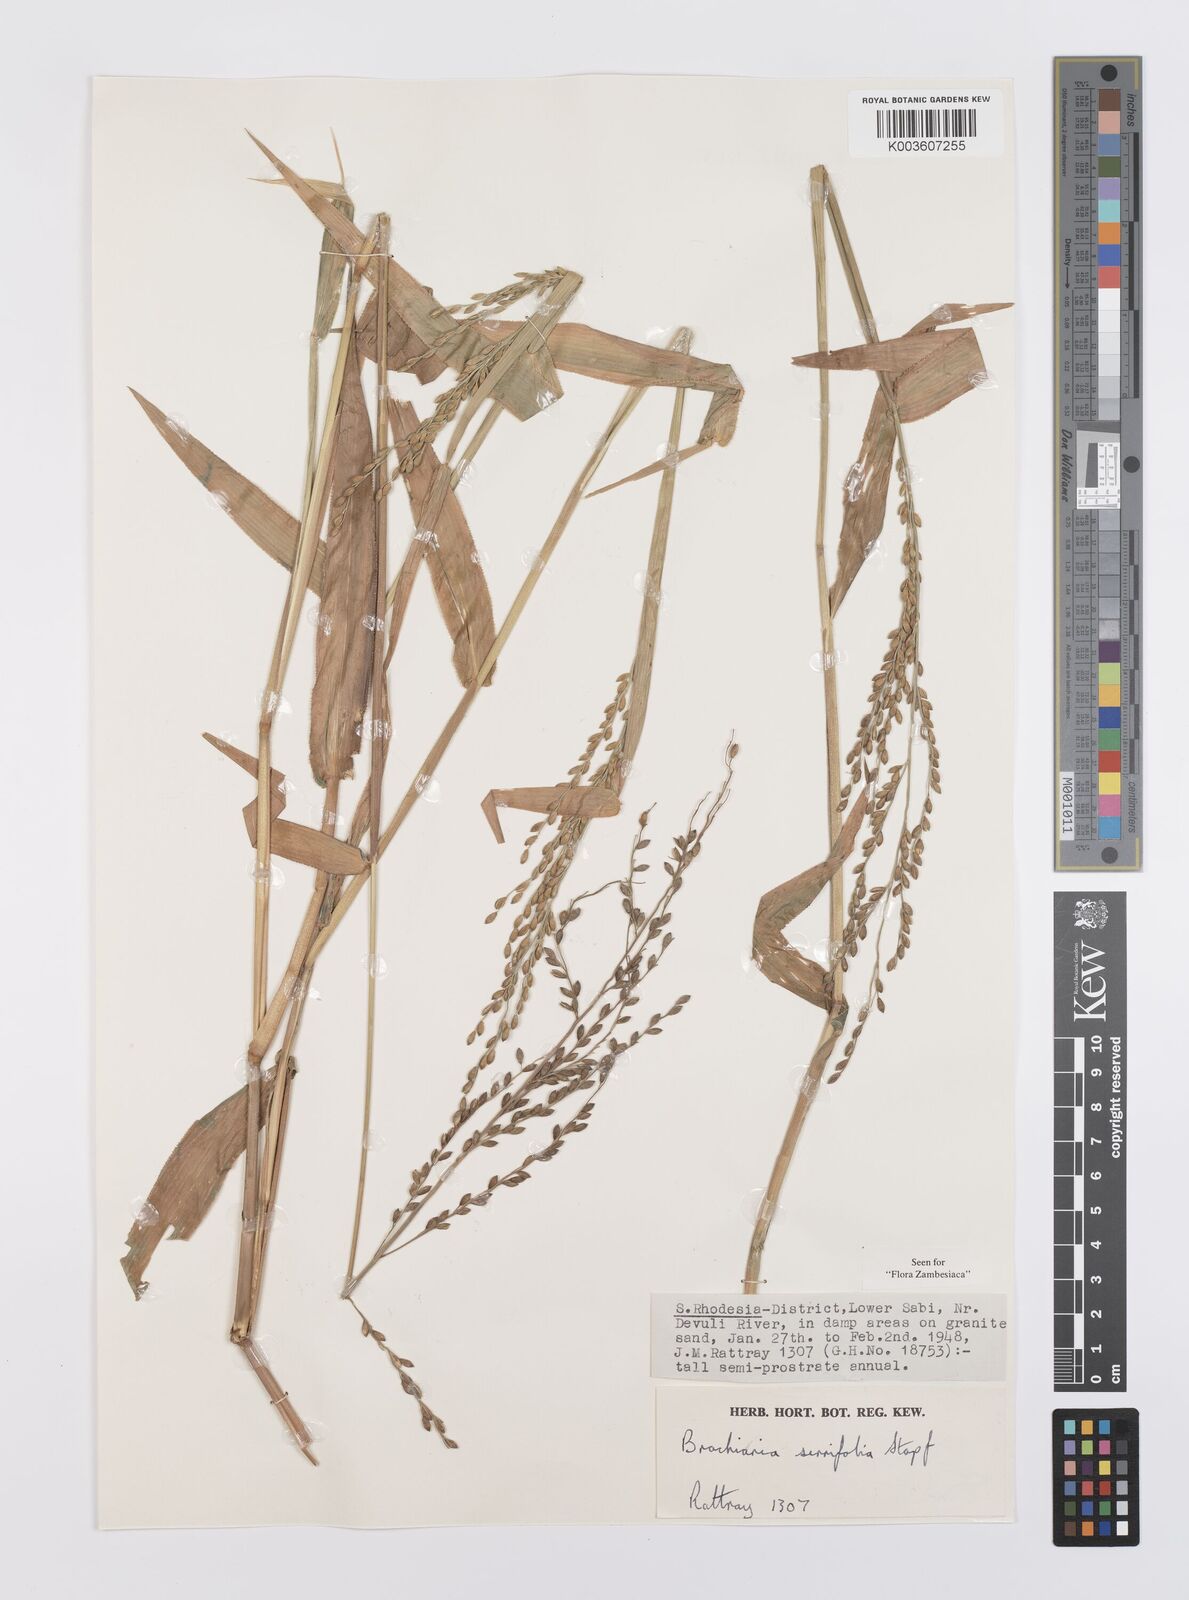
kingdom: Plantae
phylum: Tracheophyta
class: Liliopsida
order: Poales
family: Poaceae
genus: Urochloa
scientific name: Urochloa serrifolia
